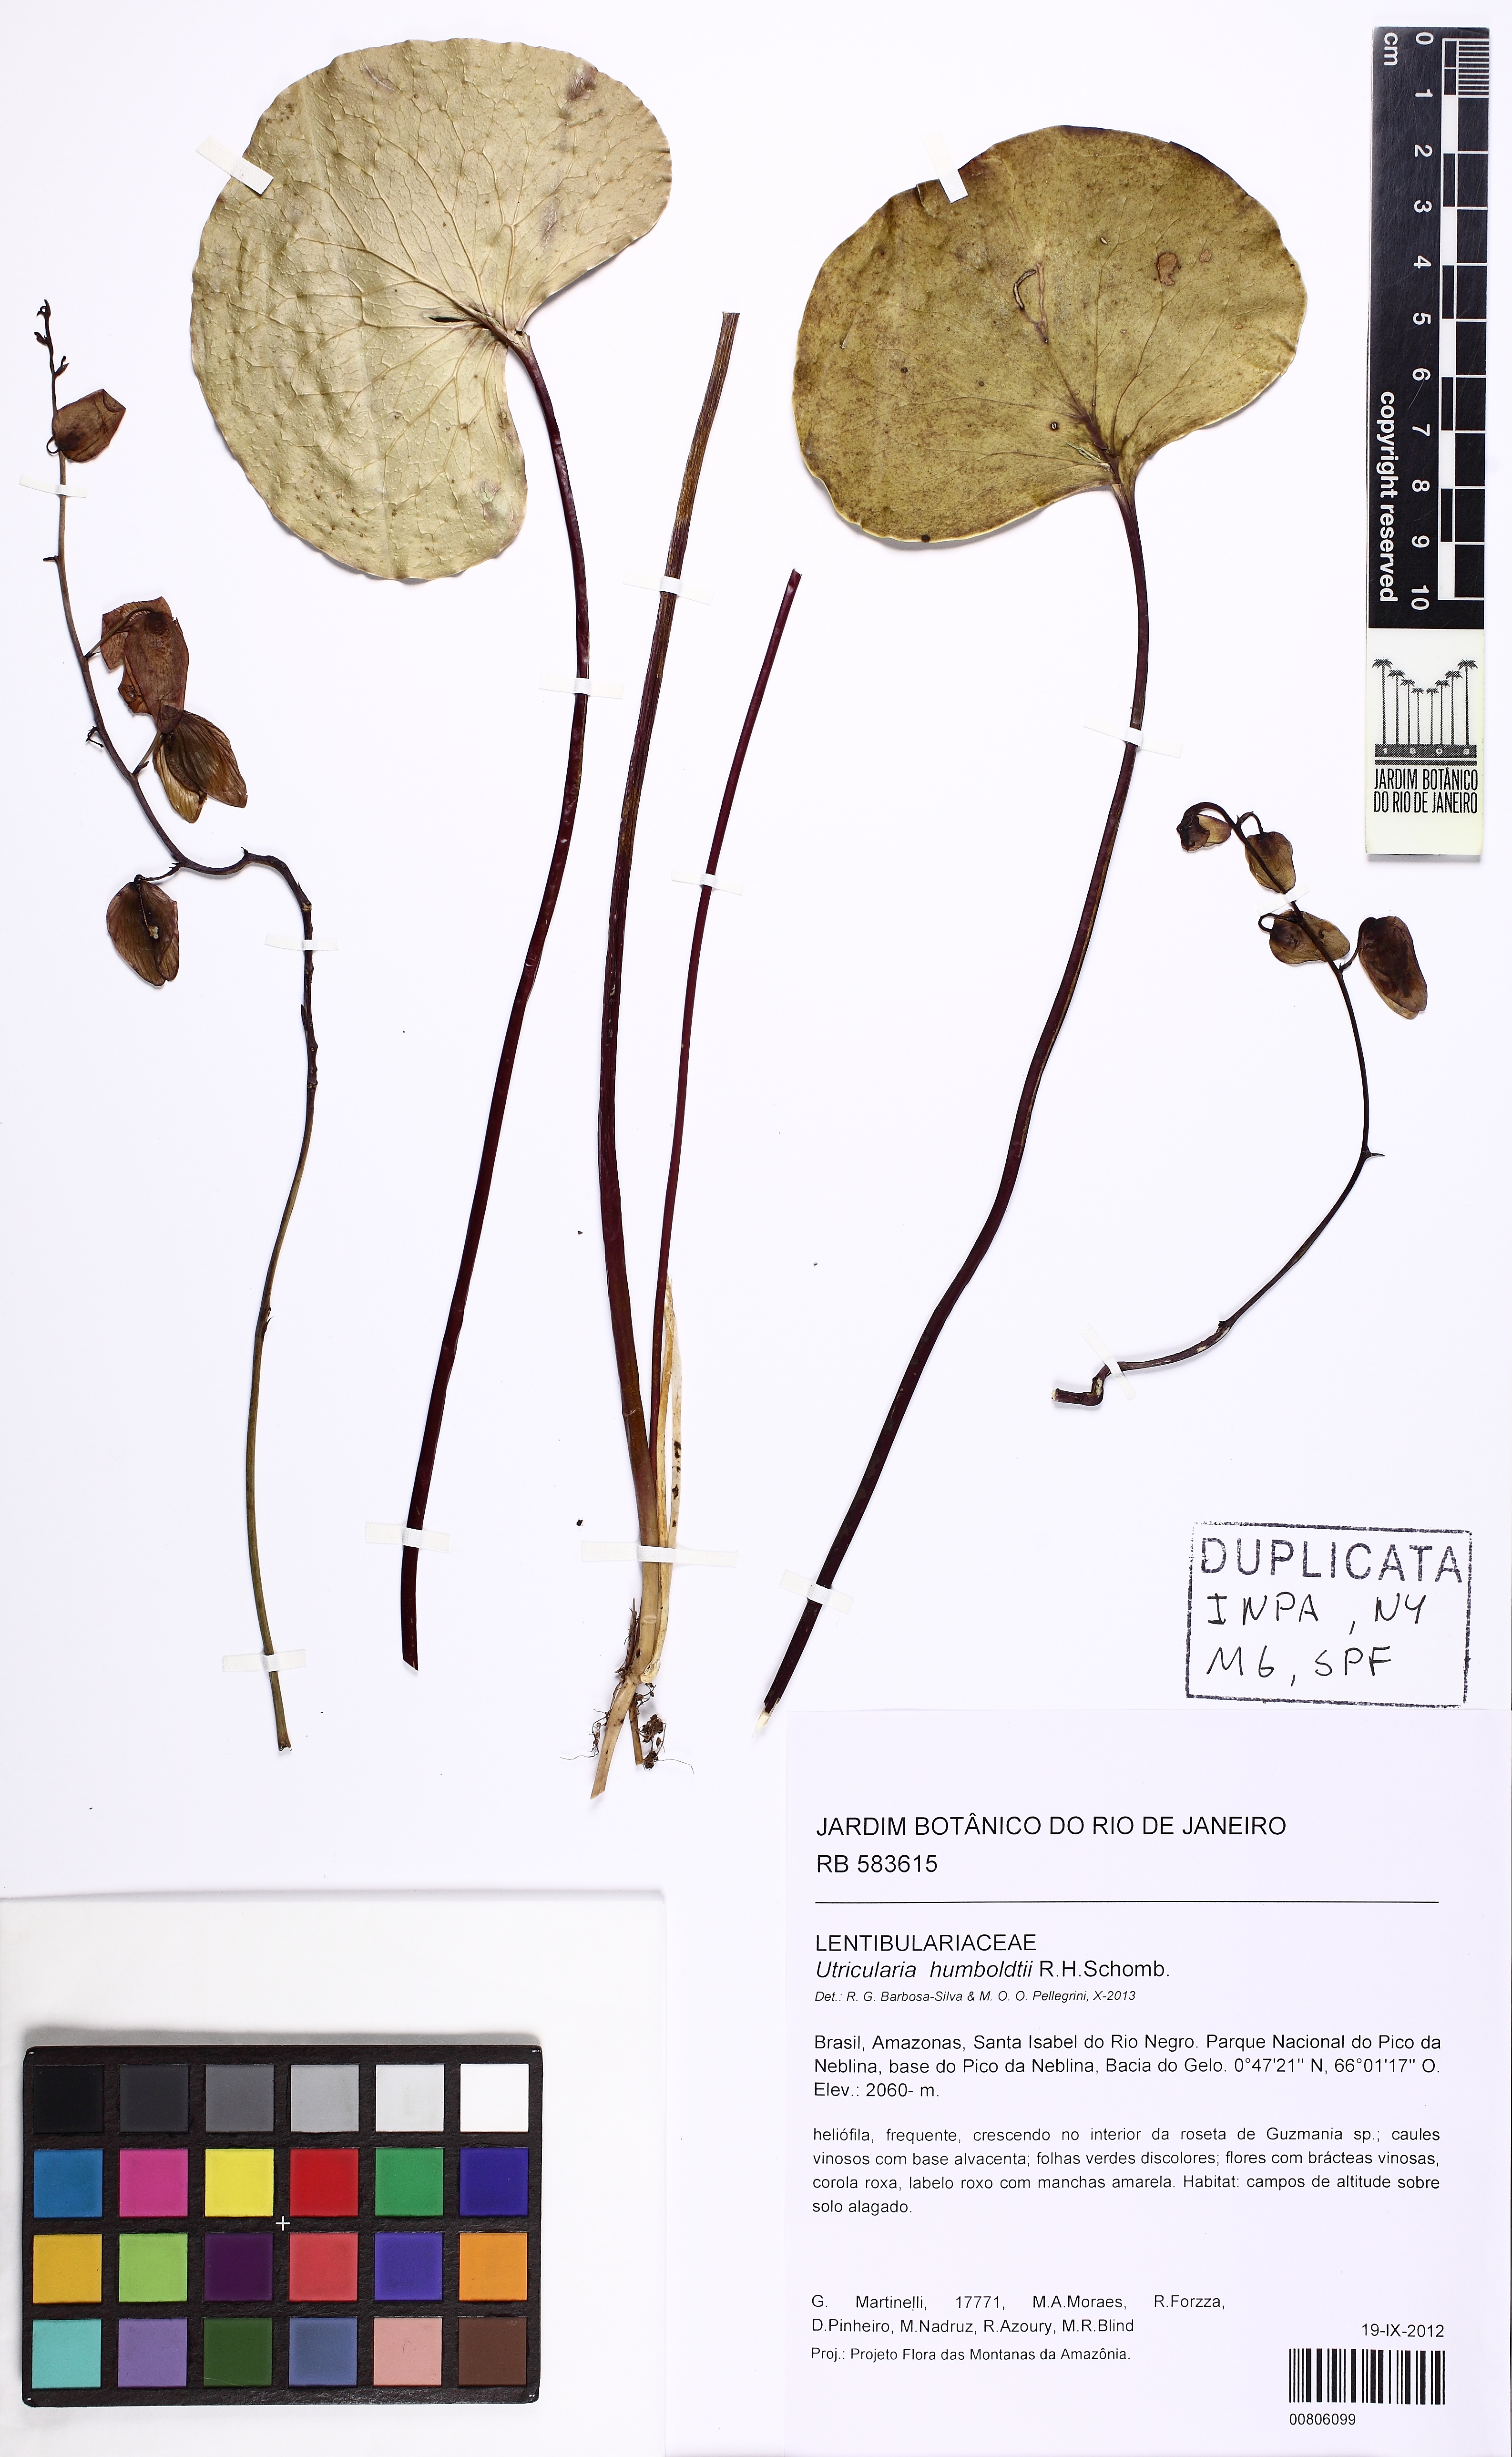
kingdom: Plantae
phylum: Tracheophyta
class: Magnoliopsida
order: Lamiales
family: Lentibulariaceae
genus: Utricularia
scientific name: Utricularia humboldtii
